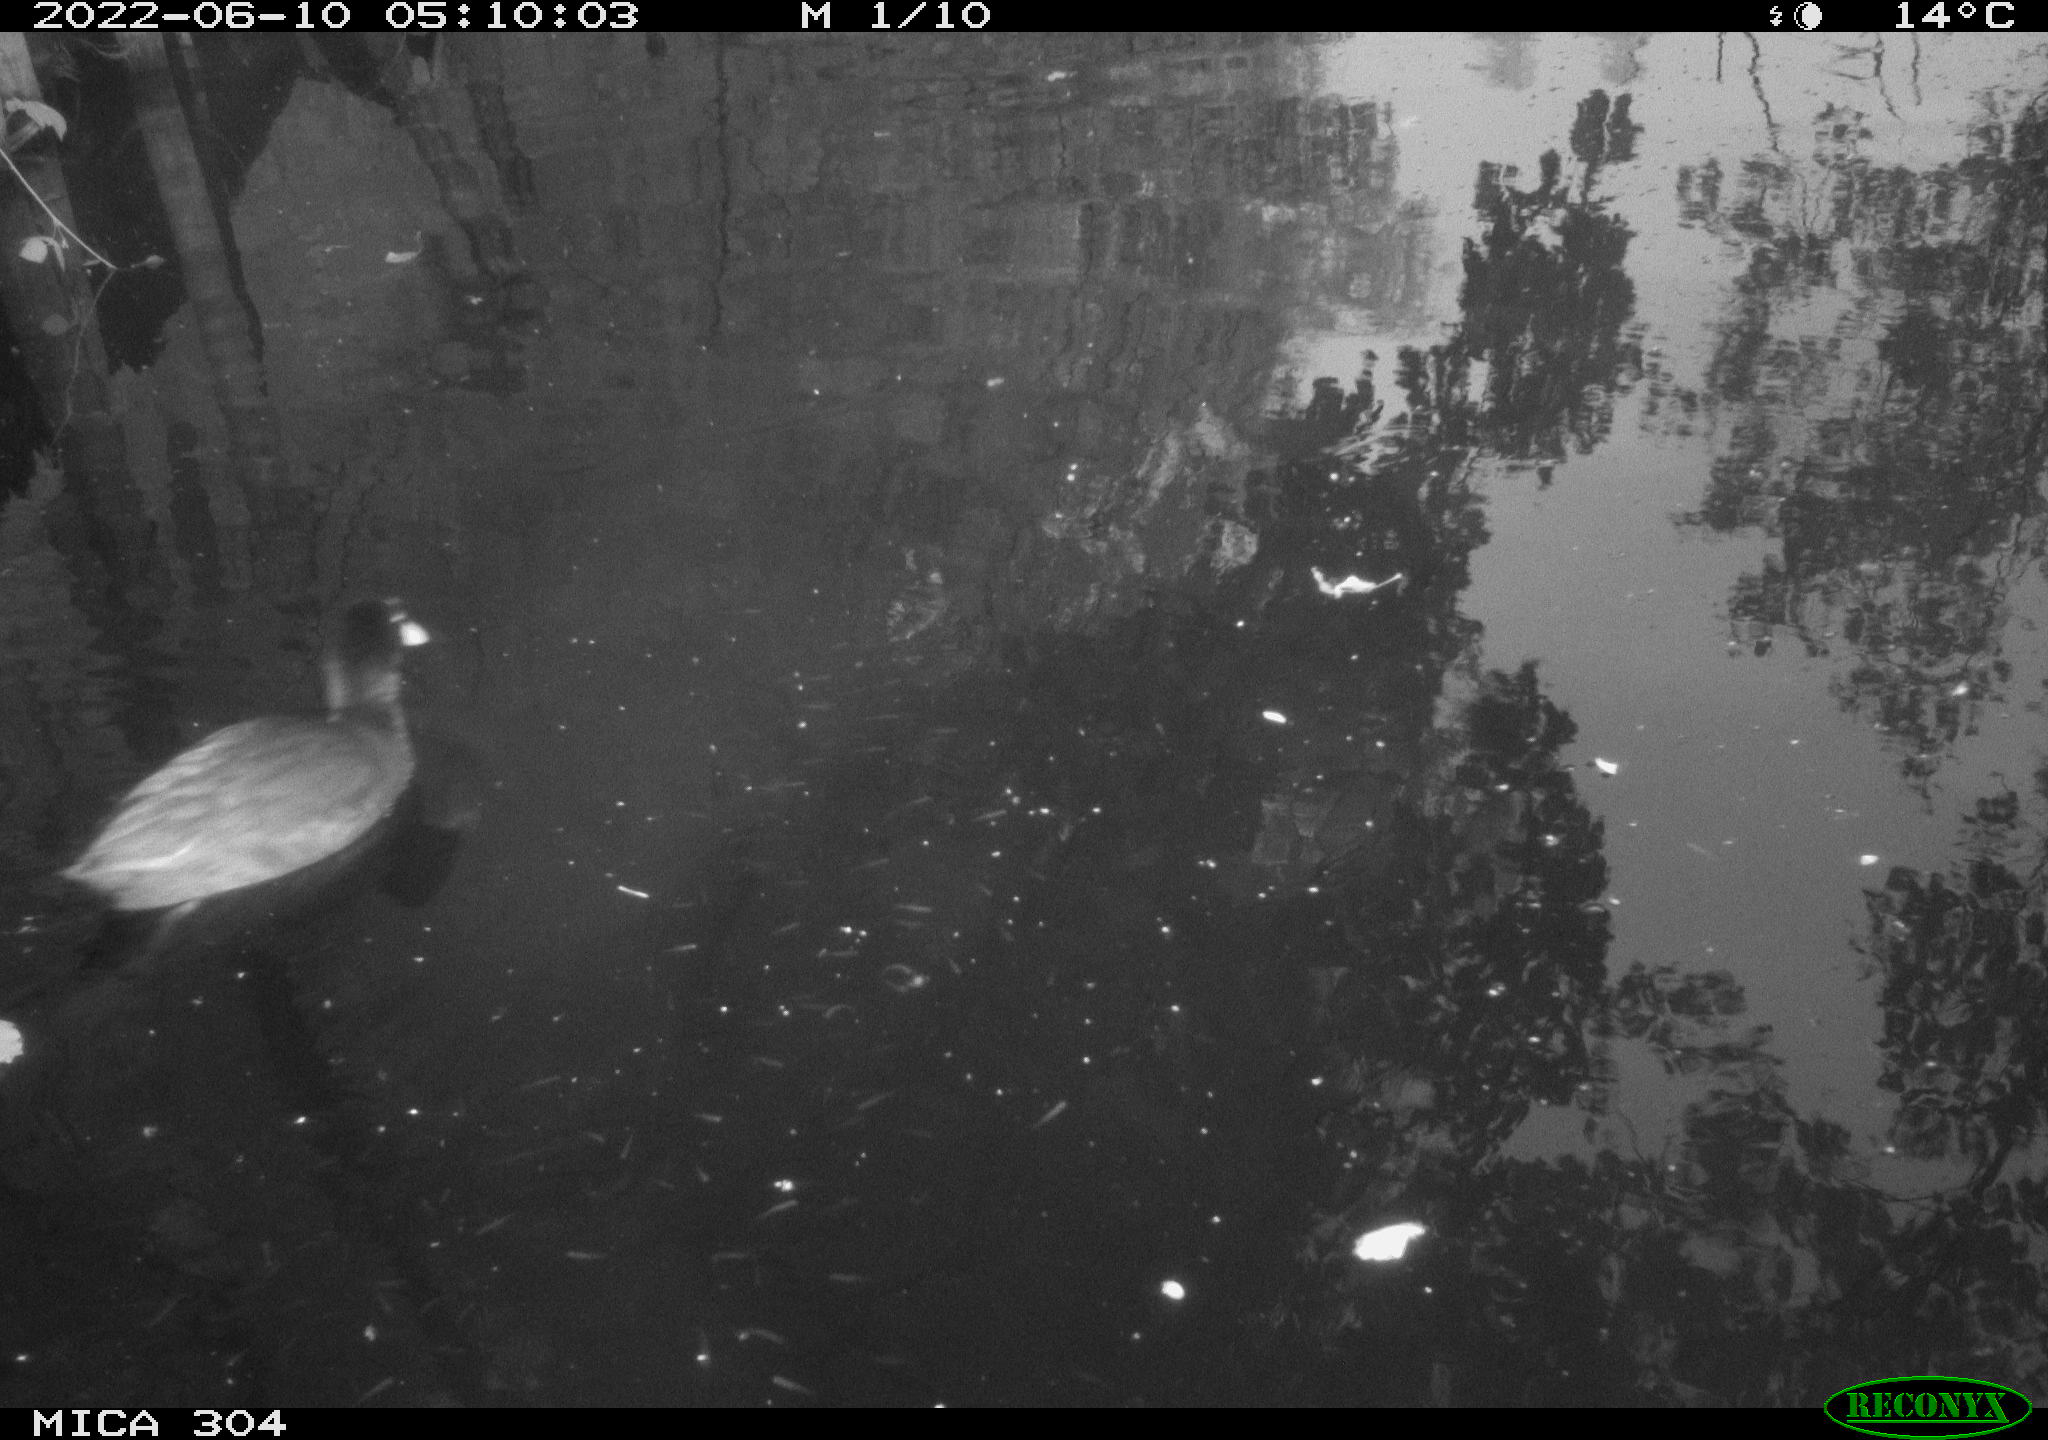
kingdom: Animalia
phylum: Chordata
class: Aves
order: Gruiformes
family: Rallidae
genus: Fulica
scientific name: Fulica atra
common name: Eurasian coot
